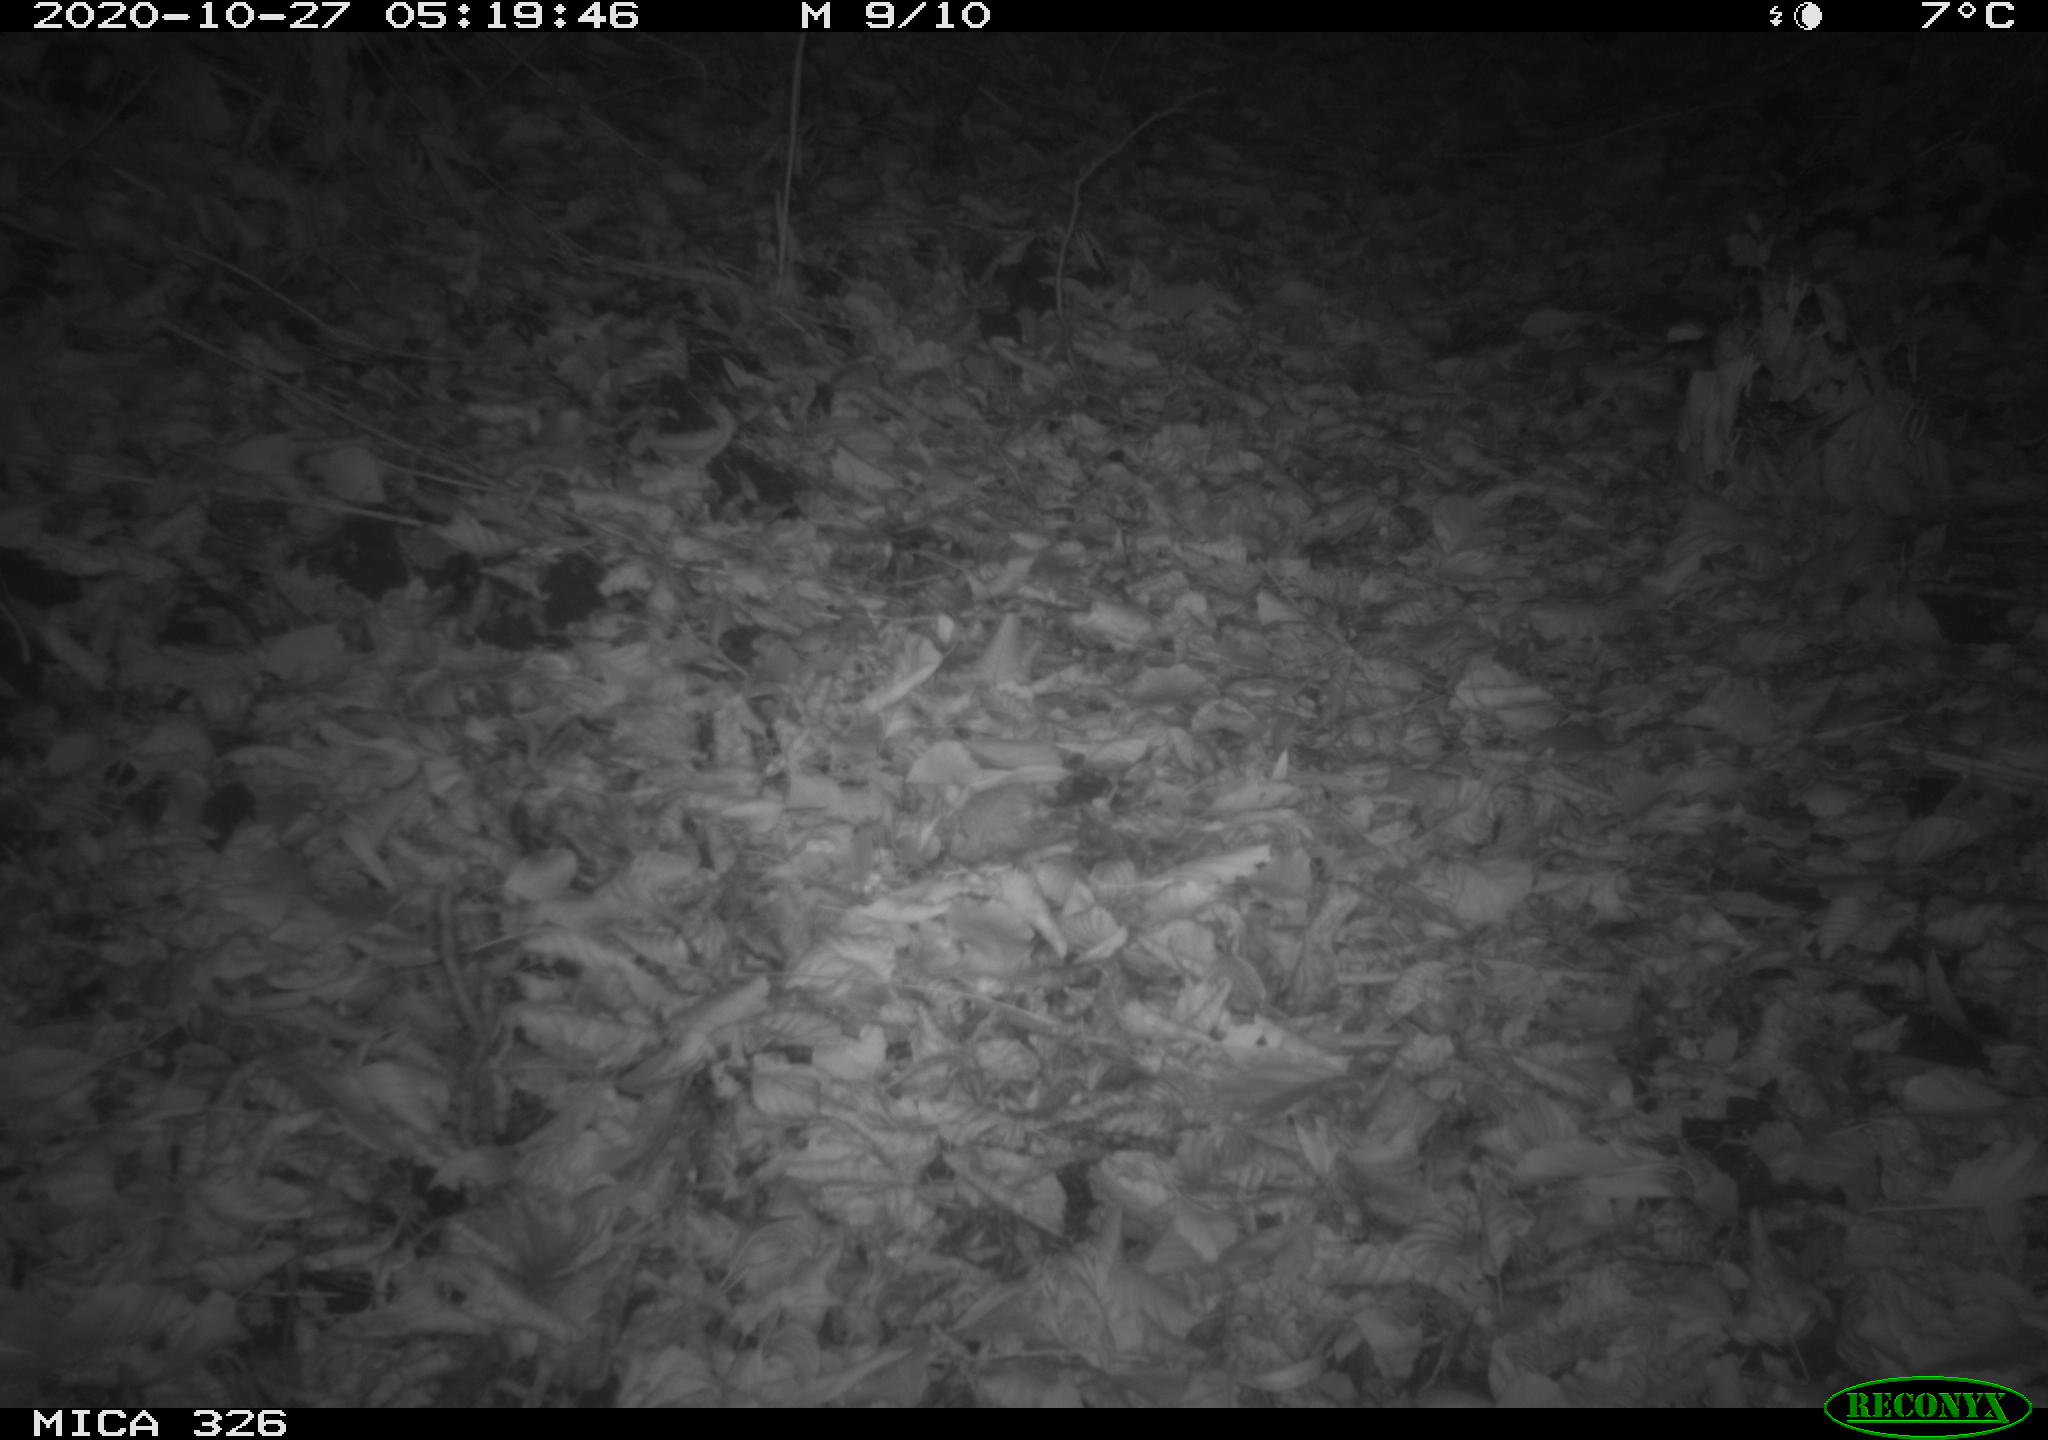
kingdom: Animalia
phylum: Chordata
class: Mammalia
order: Carnivora
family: Mustelidae
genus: Lutra
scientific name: Lutra lutra
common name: European otter
